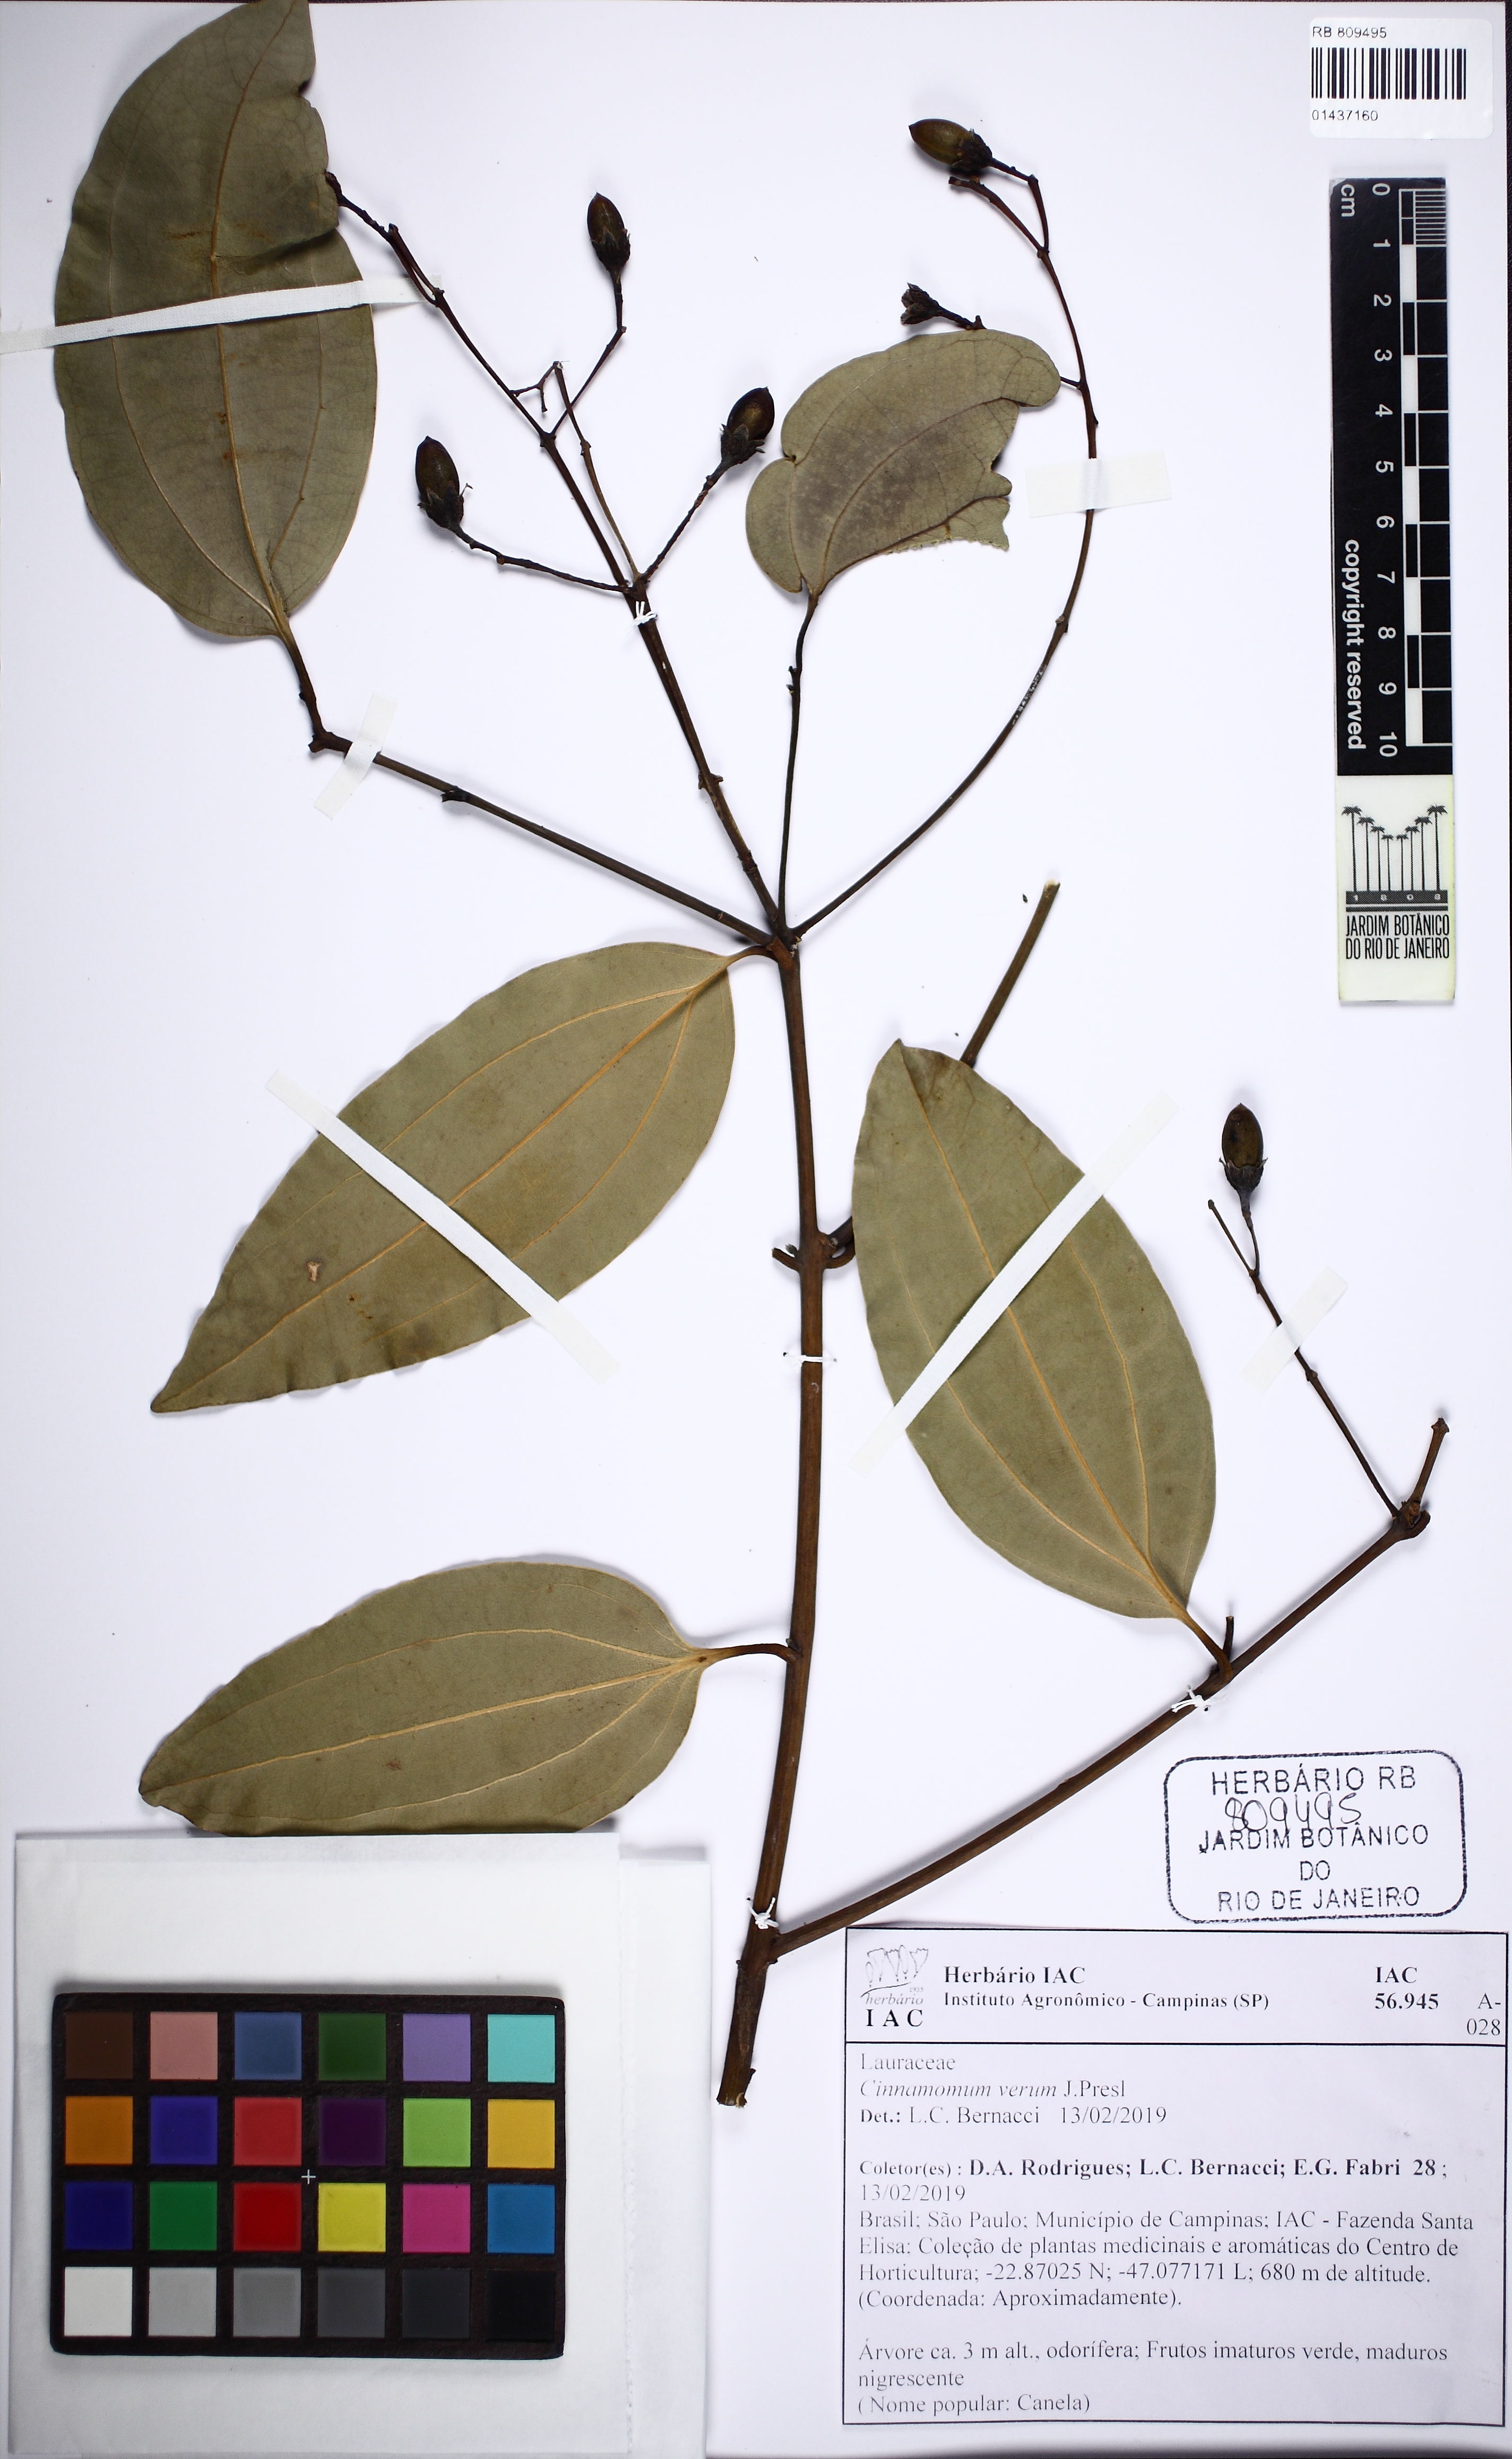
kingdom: Plantae
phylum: Tracheophyta
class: Magnoliopsida
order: Laurales
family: Lauraceae
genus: Cinnamomum
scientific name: Cinnamomum verum
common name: Cinnamon
